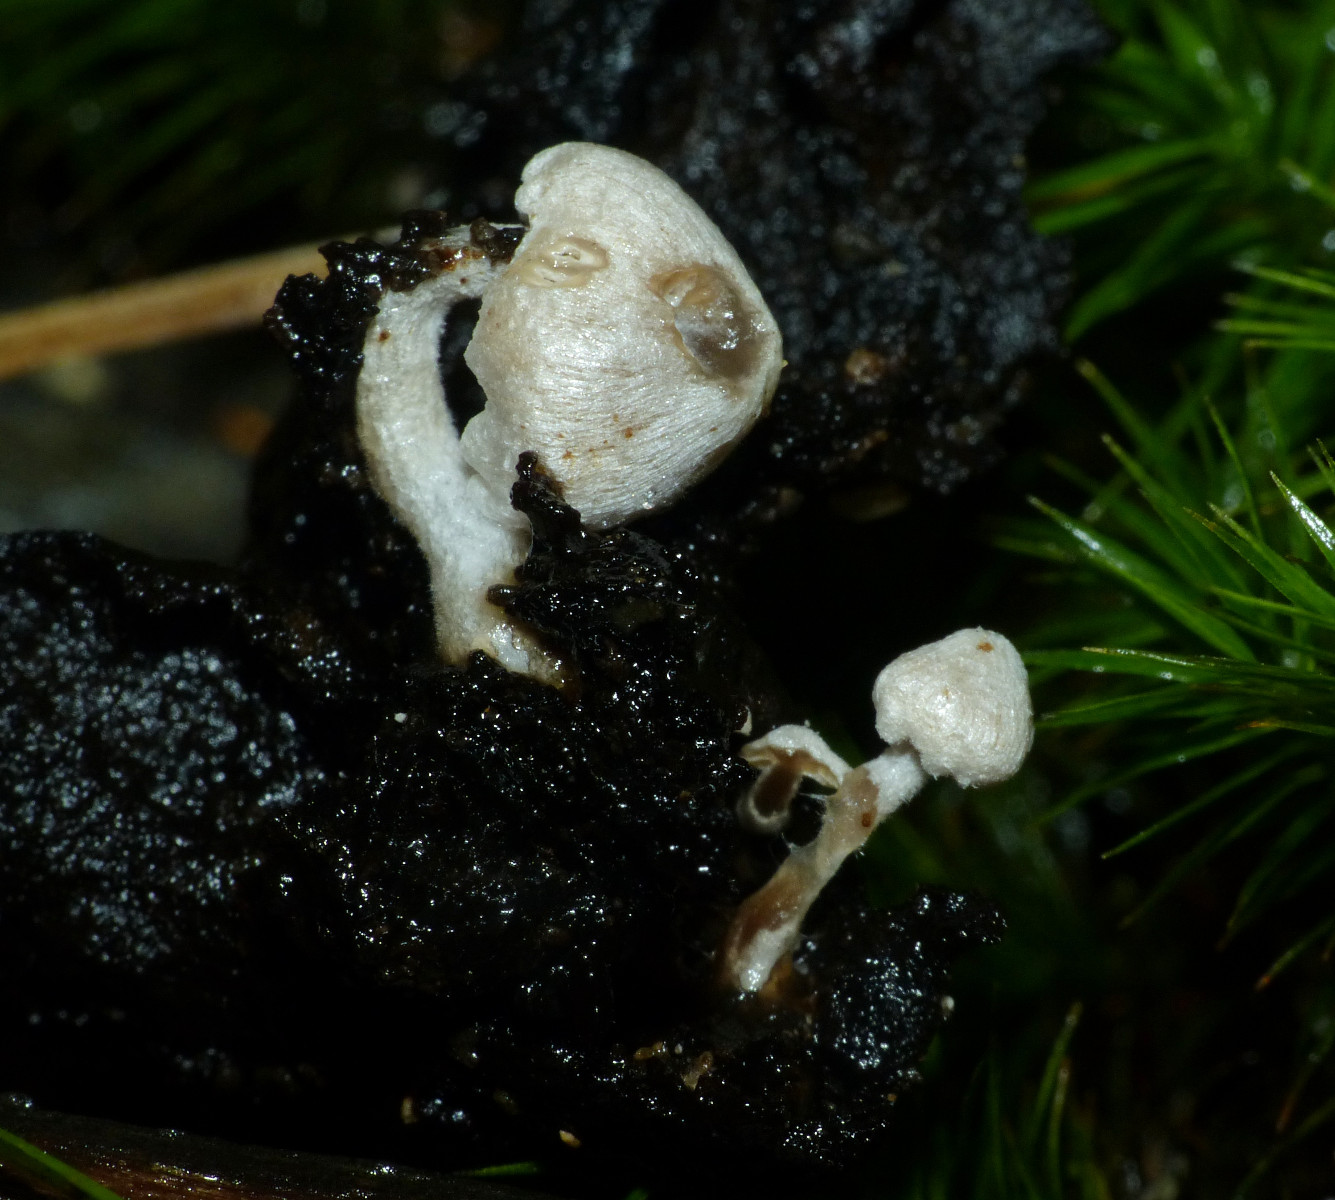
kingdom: Fungi
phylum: Basidiomycota
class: Agaricomycetes
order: Agaricales
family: Lyophyllaceae
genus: Asterophora
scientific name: Asterophora parasitica
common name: grå snyltehat
